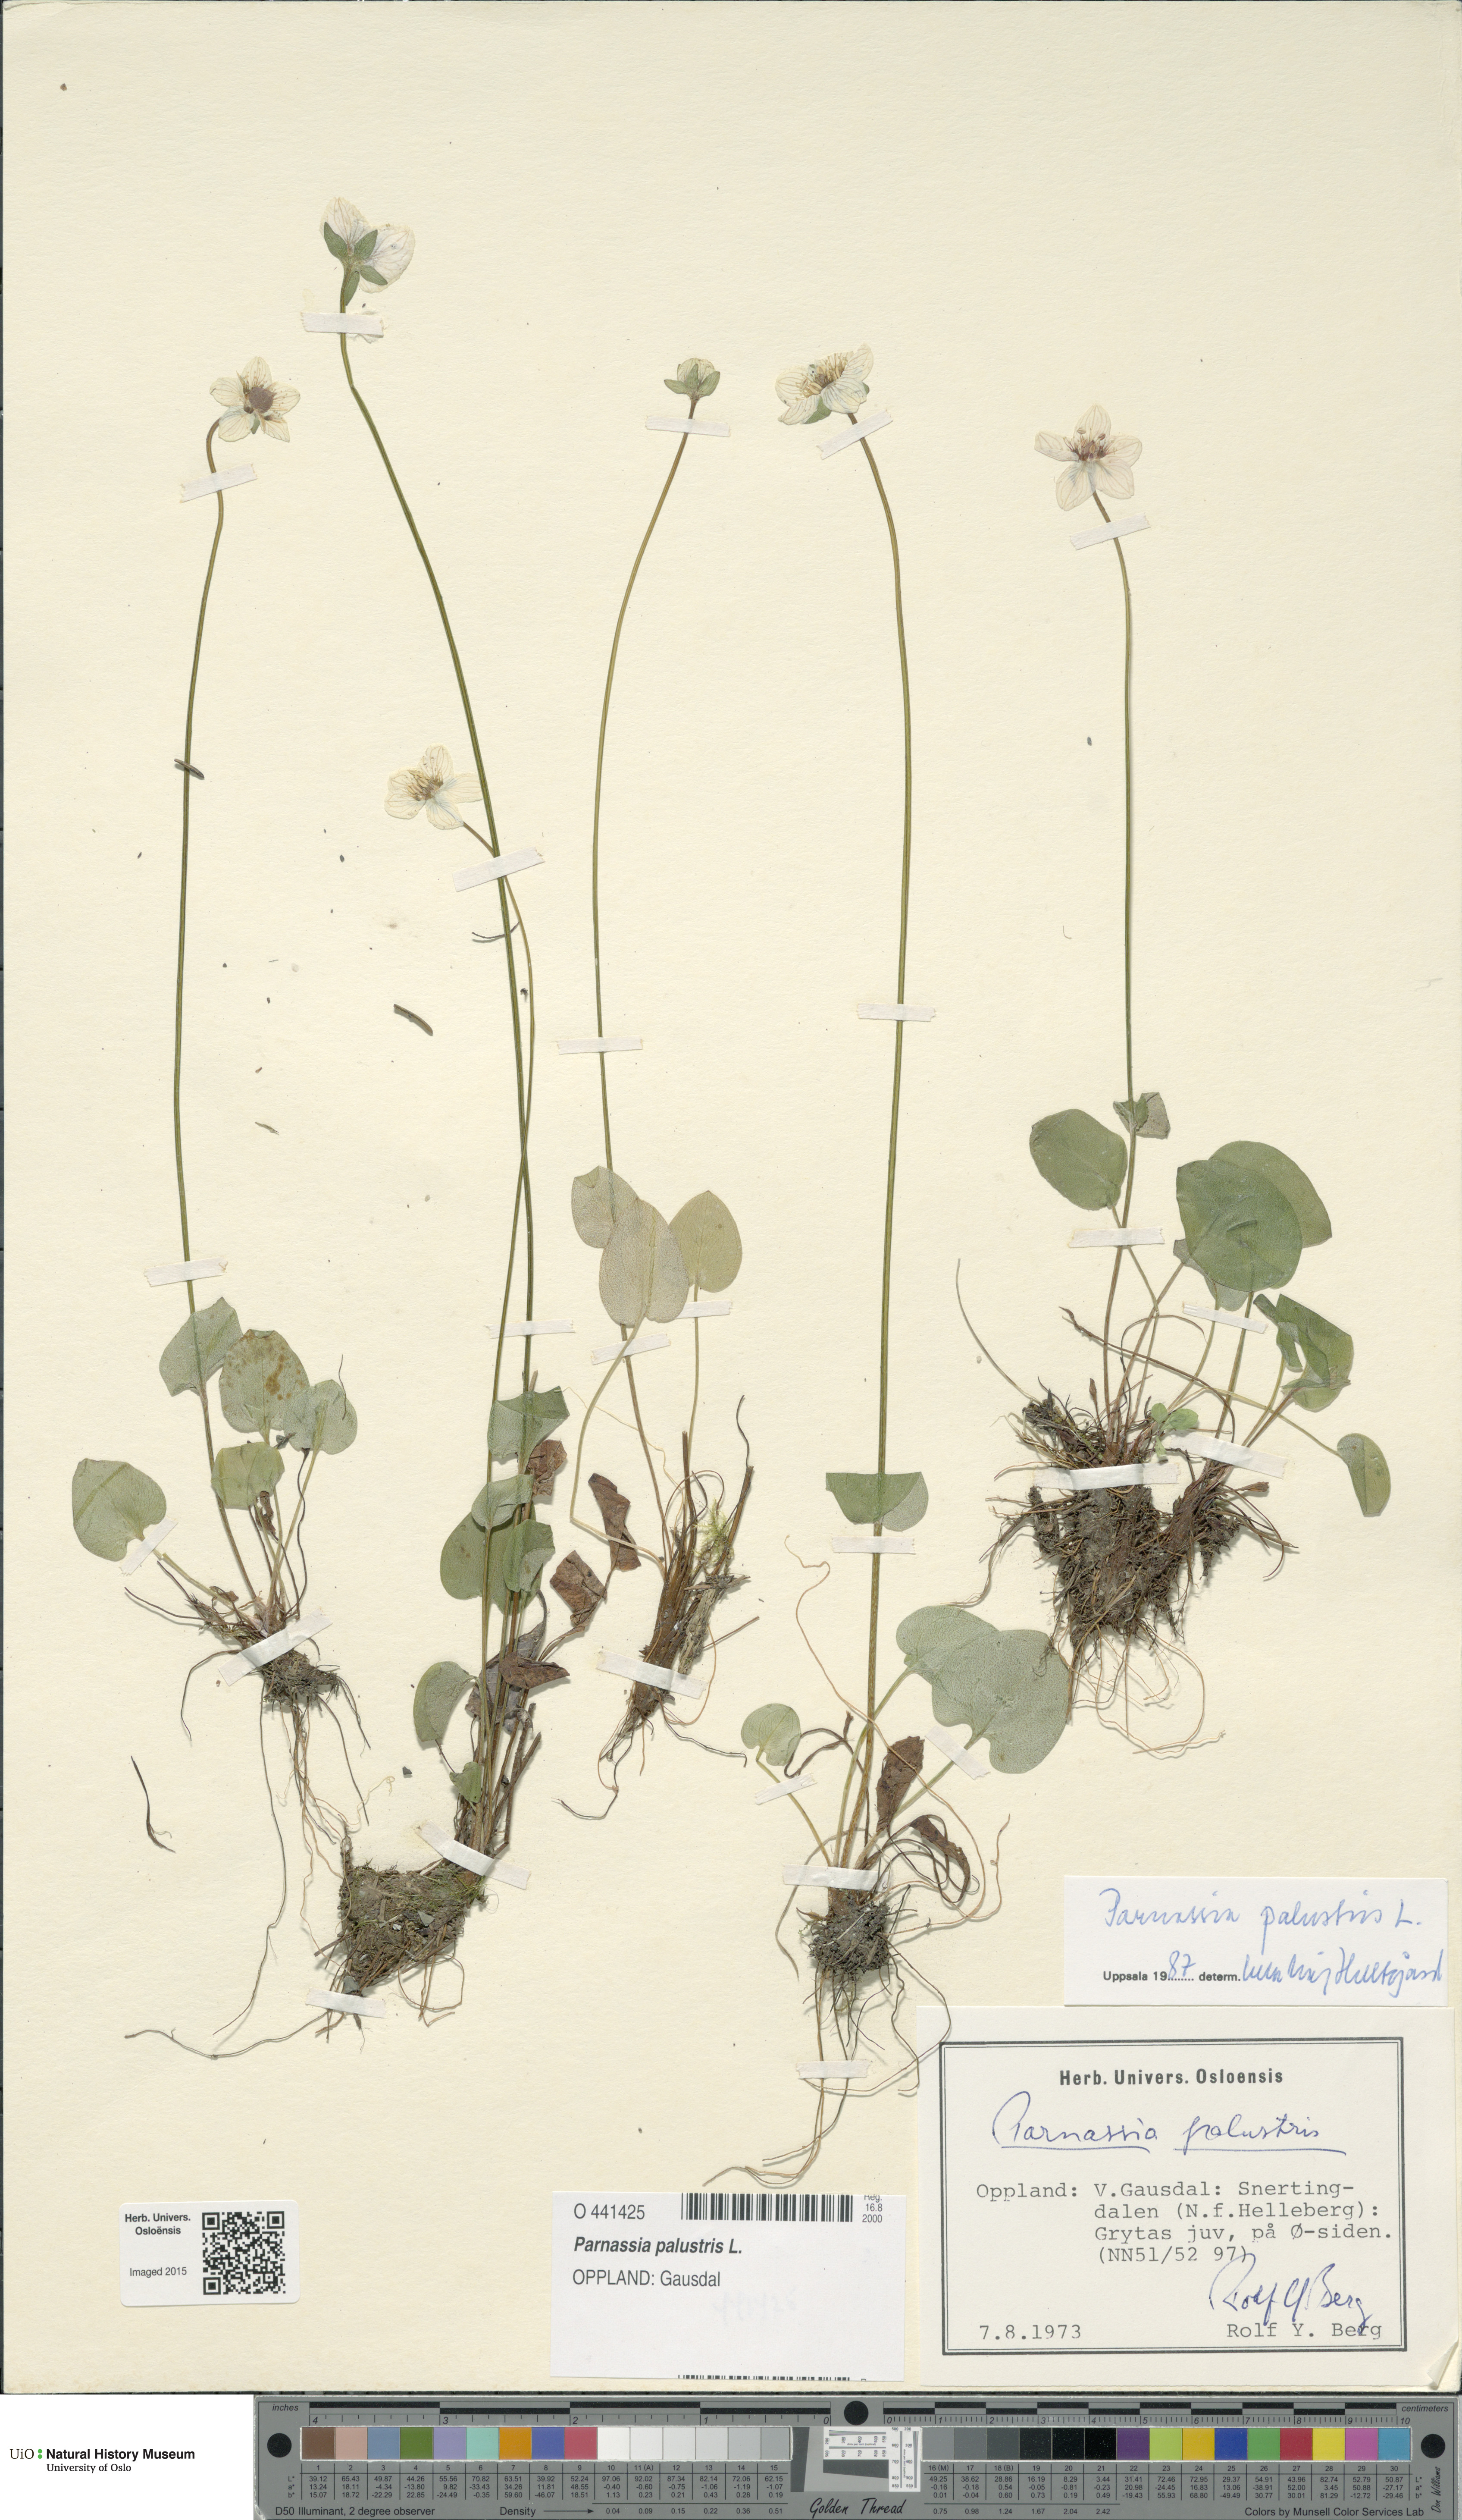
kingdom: Plantae
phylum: Tracheophyta
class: Magnoliopsida
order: Celastrales
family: Parnassiaceae
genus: Parnassia
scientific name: Parnassia palustris
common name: Grass-of-parnassus
